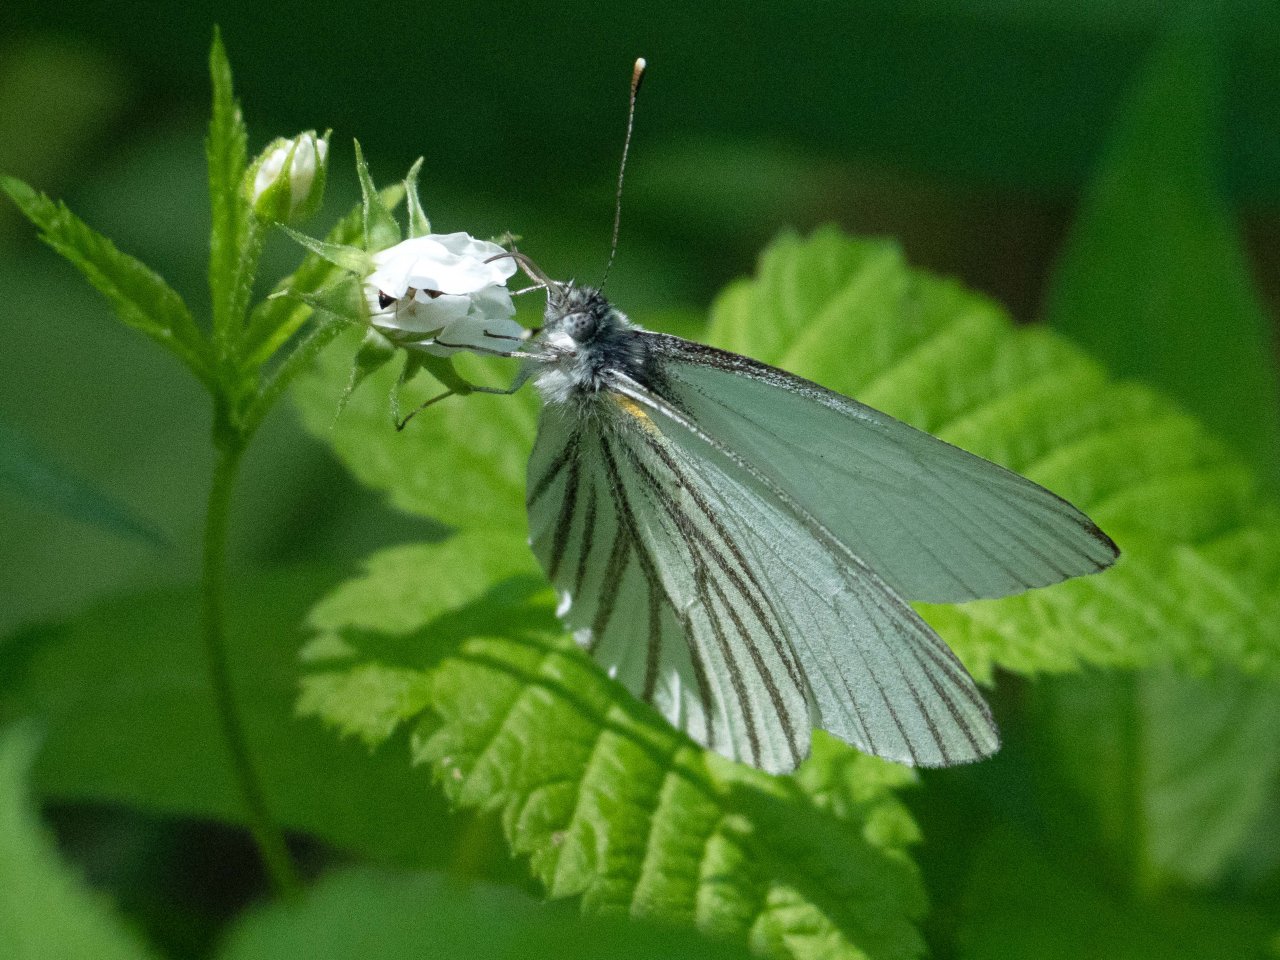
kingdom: Animalia
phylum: Arthropoda
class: Insecta
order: Lepidoptera
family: Pieridae
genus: Pieris
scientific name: Pieris oleracea
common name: Mustard White
